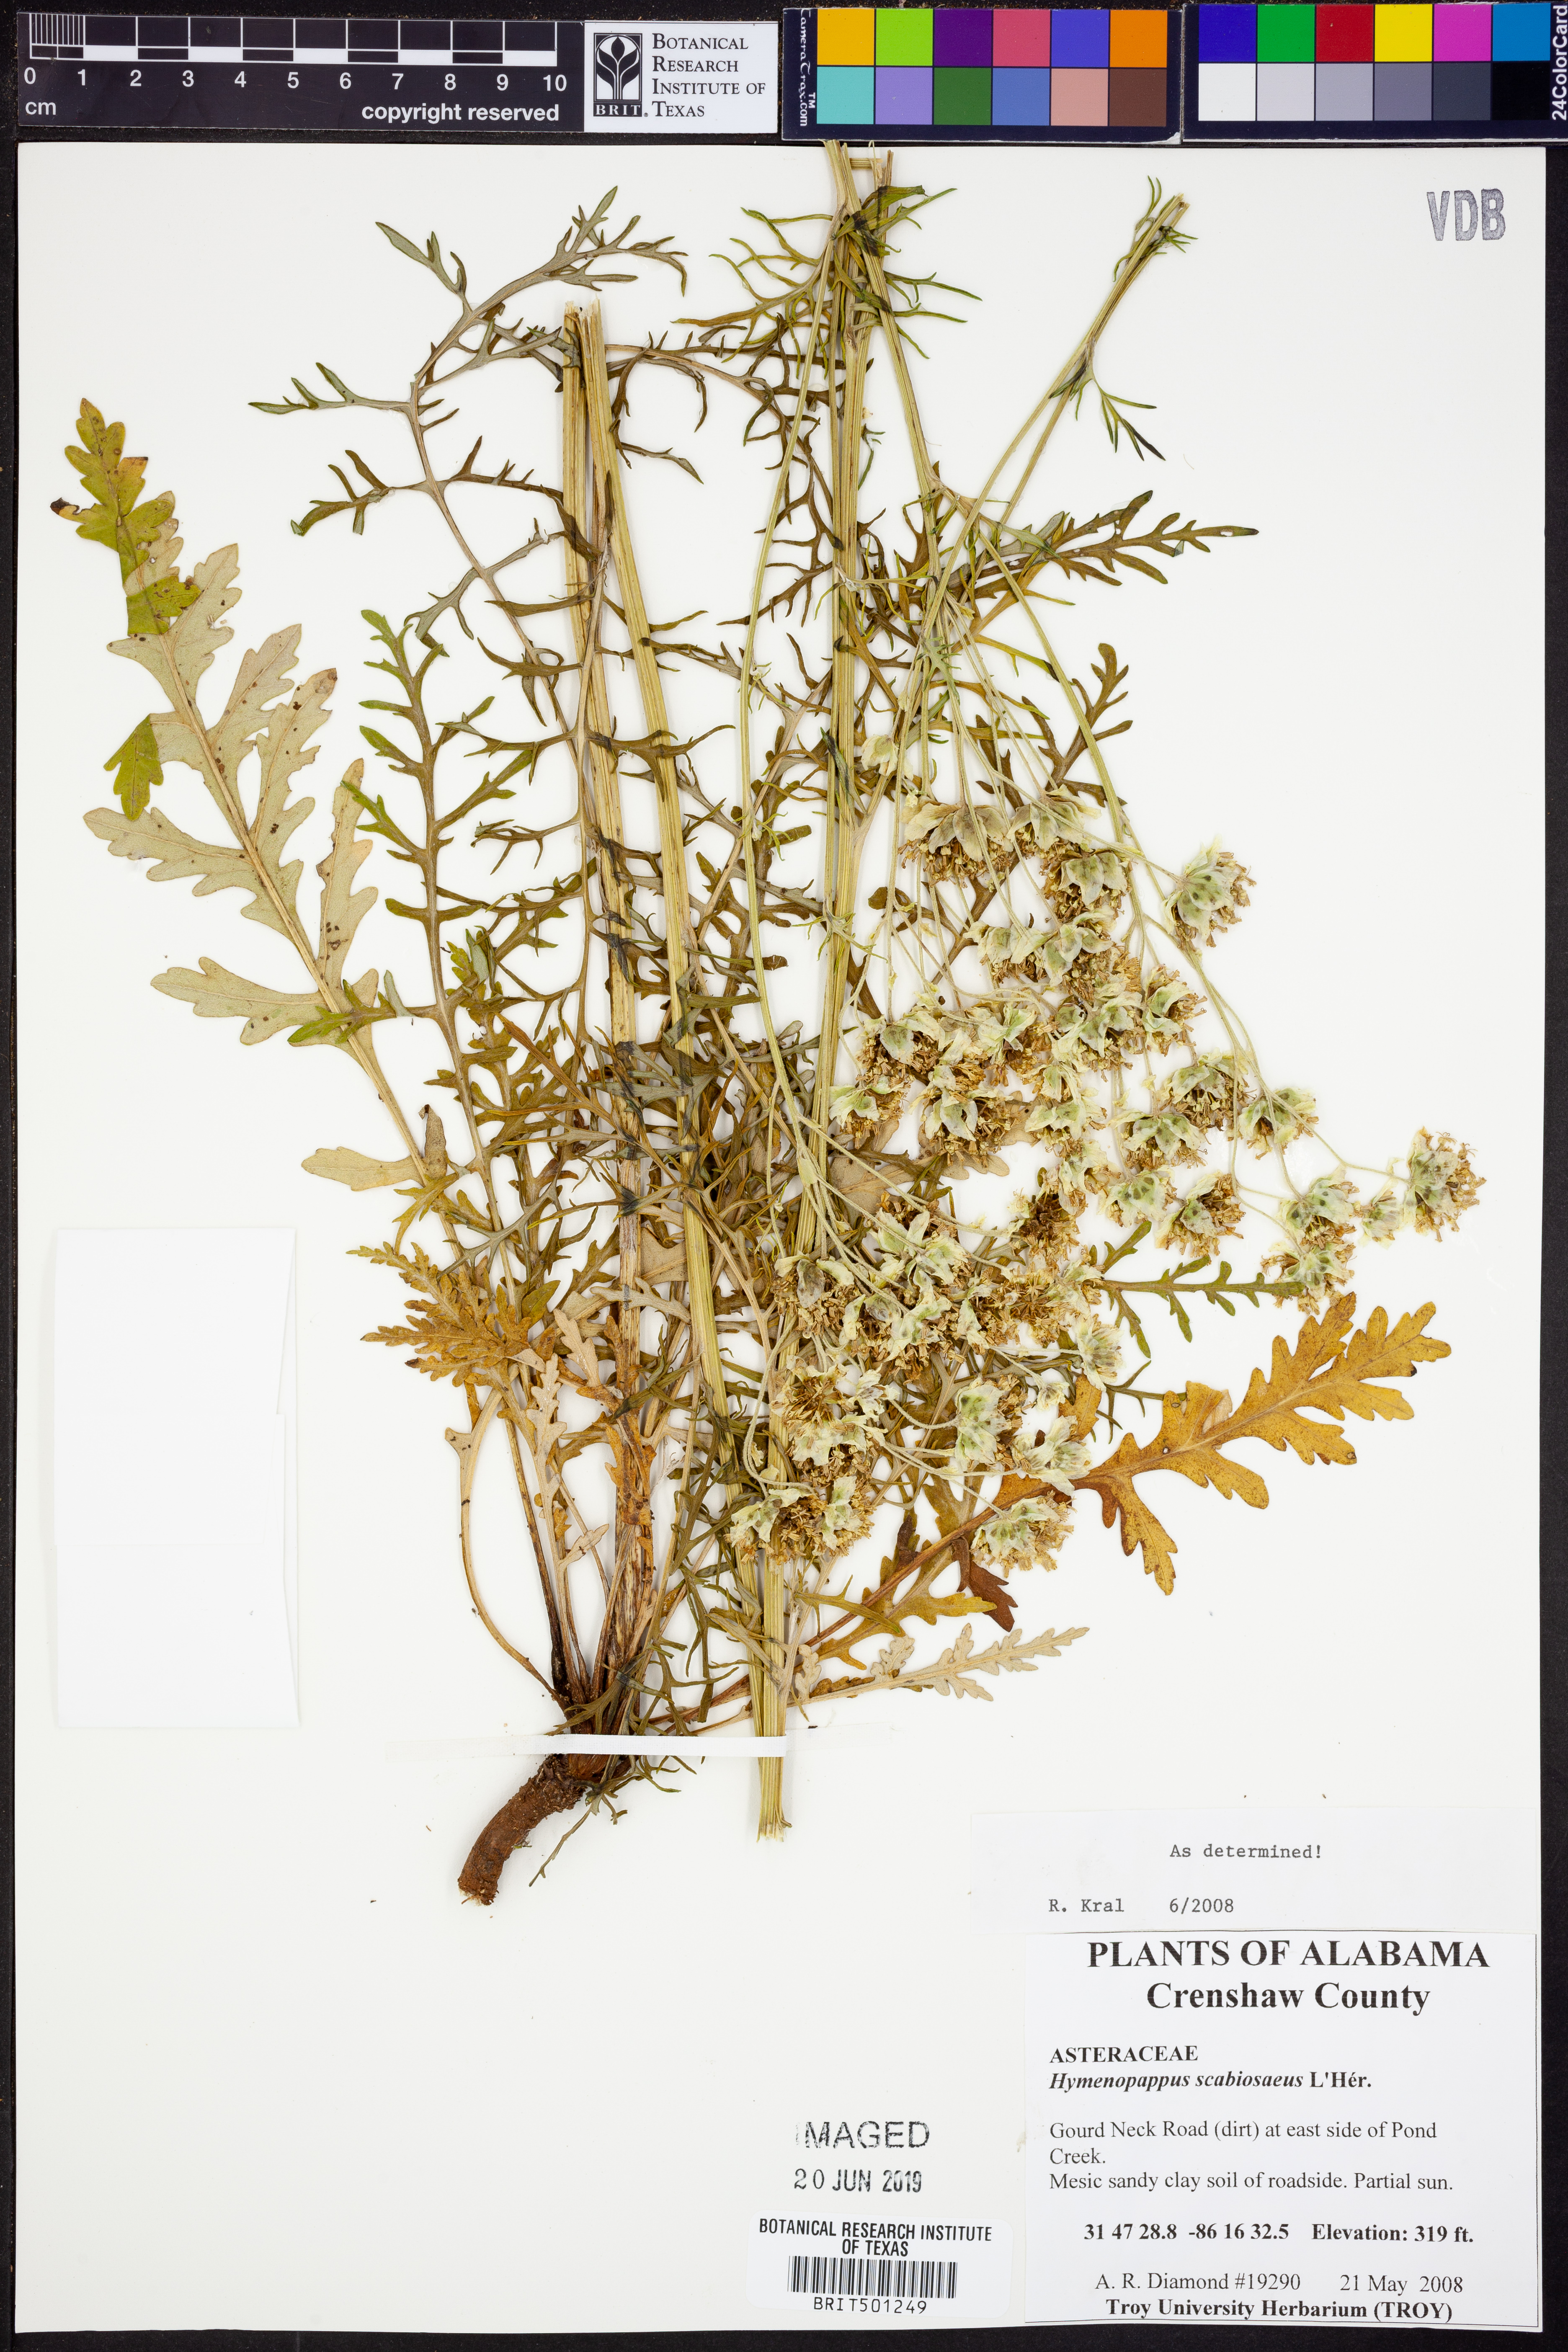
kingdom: Plantae
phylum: Tracheophyta
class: Magnoliopsida
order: Asterales
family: Asteraceae
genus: Hymenopappus
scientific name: Hymenopappus scabiosaeus
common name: Carolina woollywhite
